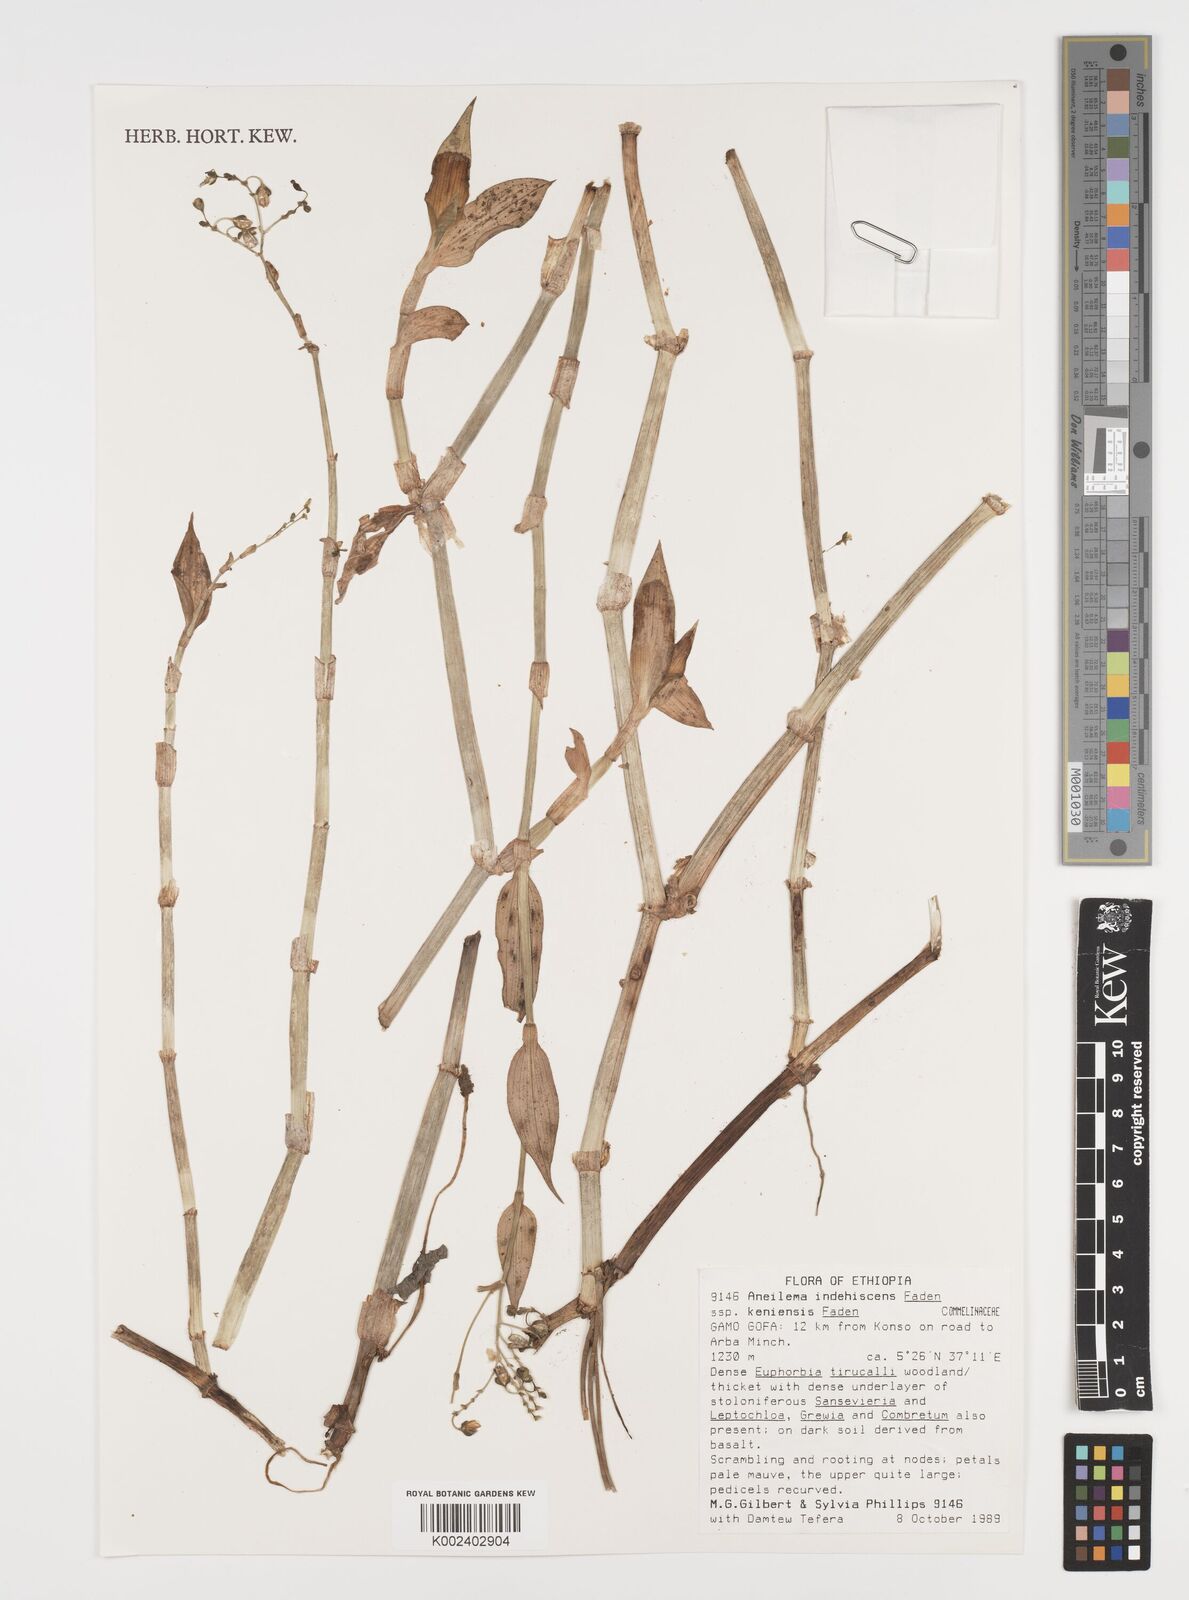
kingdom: Plantae
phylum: Tracheophyta
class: Liliopsida
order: Commelinales
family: Commelinaceae
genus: Aneilema
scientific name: Aneilema indehiscens
